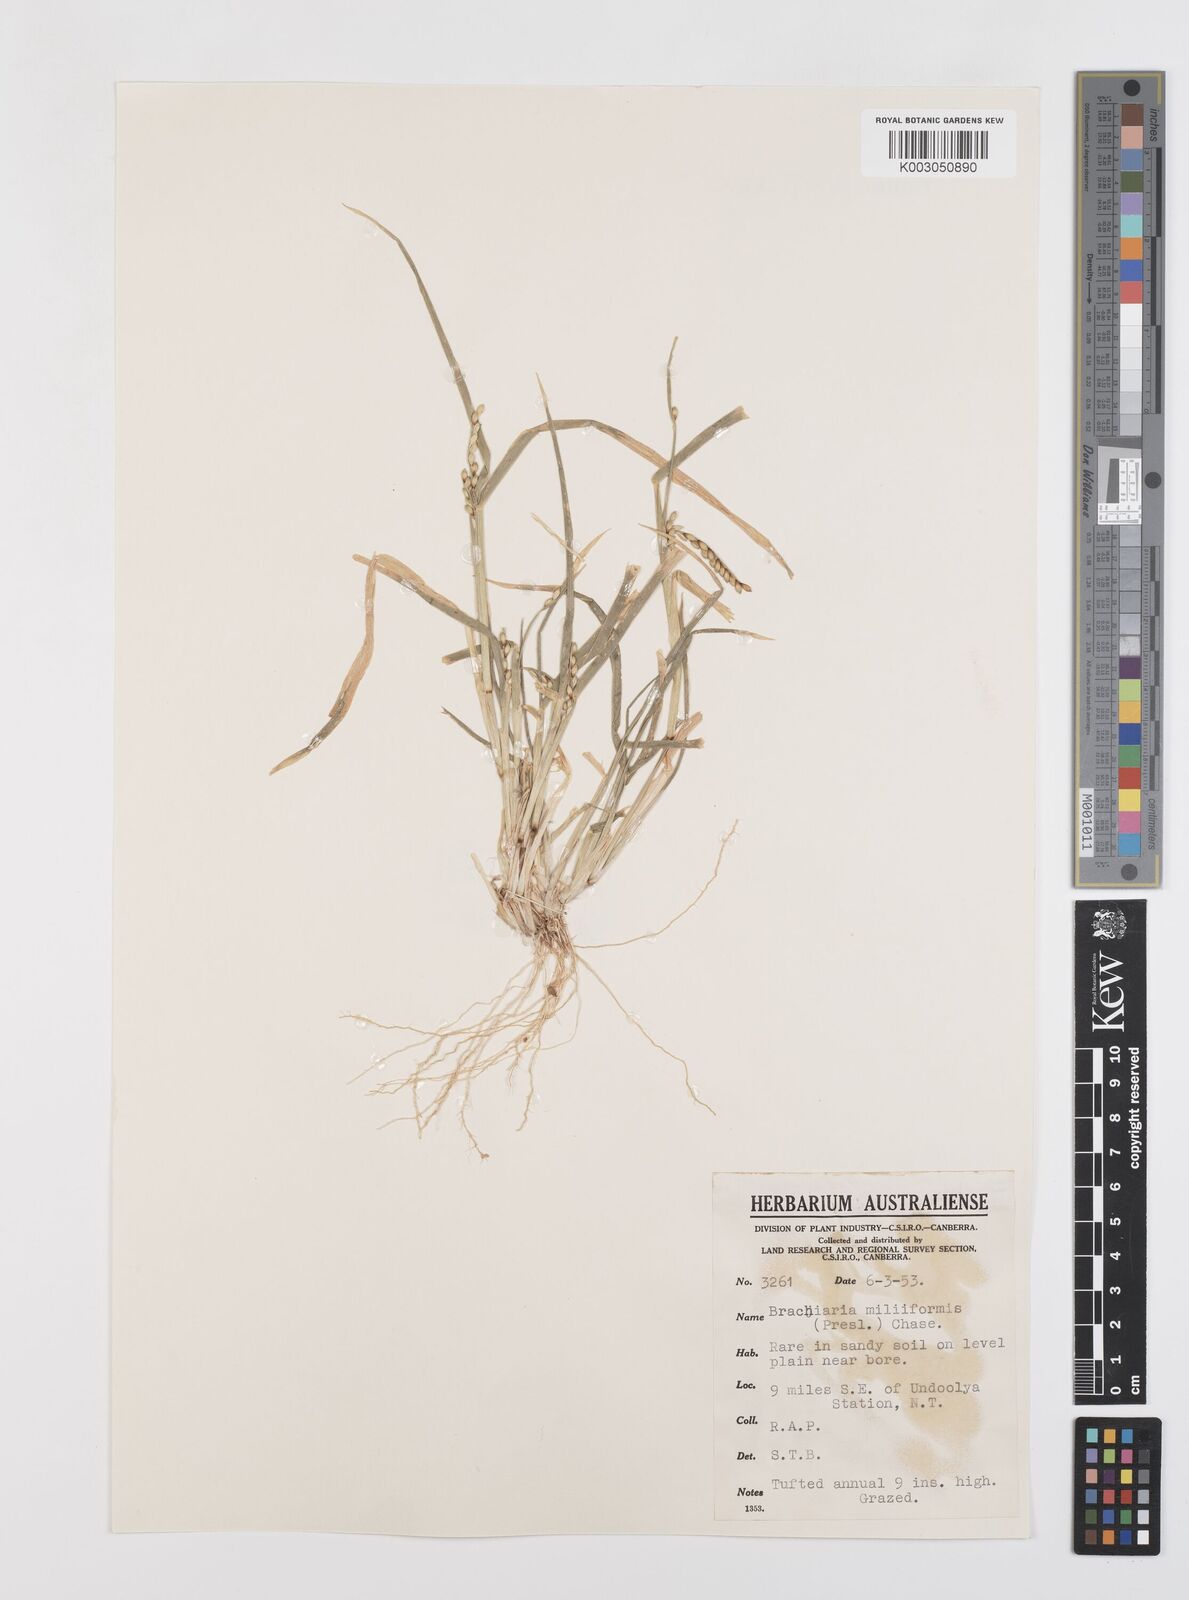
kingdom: Plantae
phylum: Tracheophyta
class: Liliopsida
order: Poales
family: Poaceae
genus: Urochloa
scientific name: Urochloa subquadripara
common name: Armgrass millet
